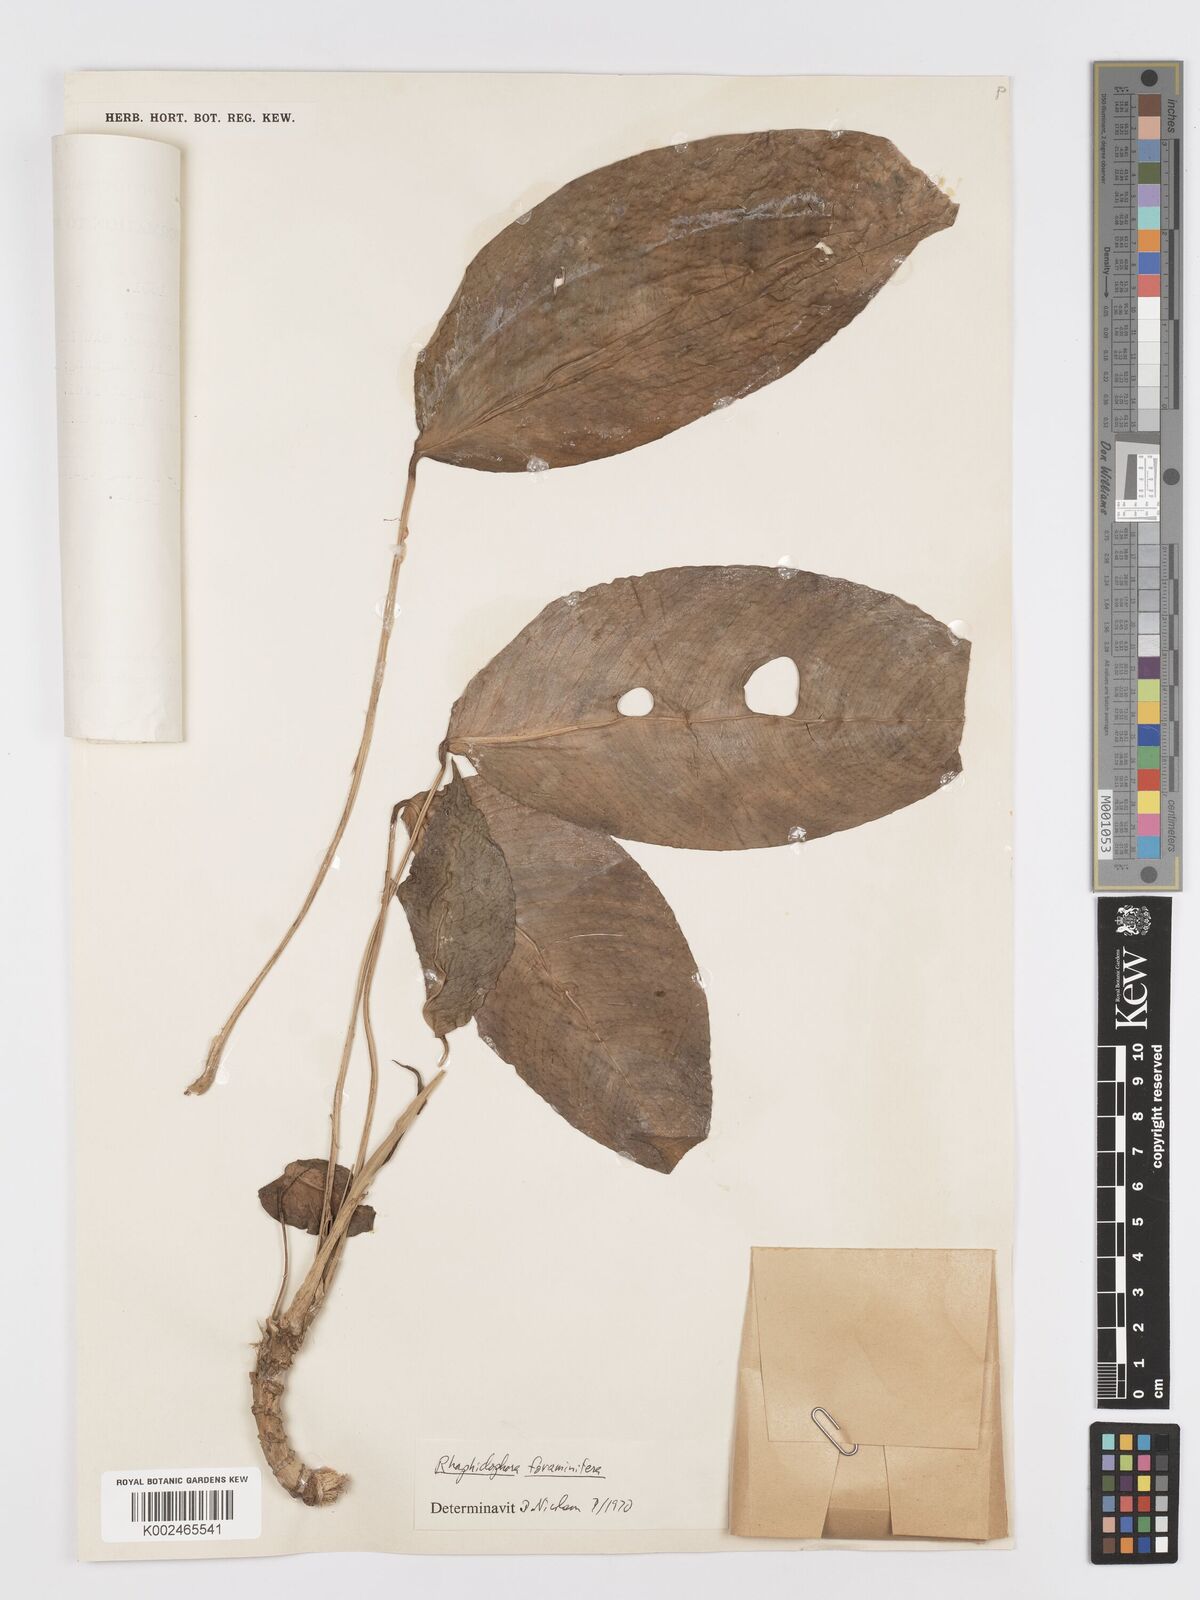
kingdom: Plantae
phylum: Tracheophyta
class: Liliopsida
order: Alismatales
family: Araceae
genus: Rhaphidophora
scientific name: Rhaphidophora puberula
